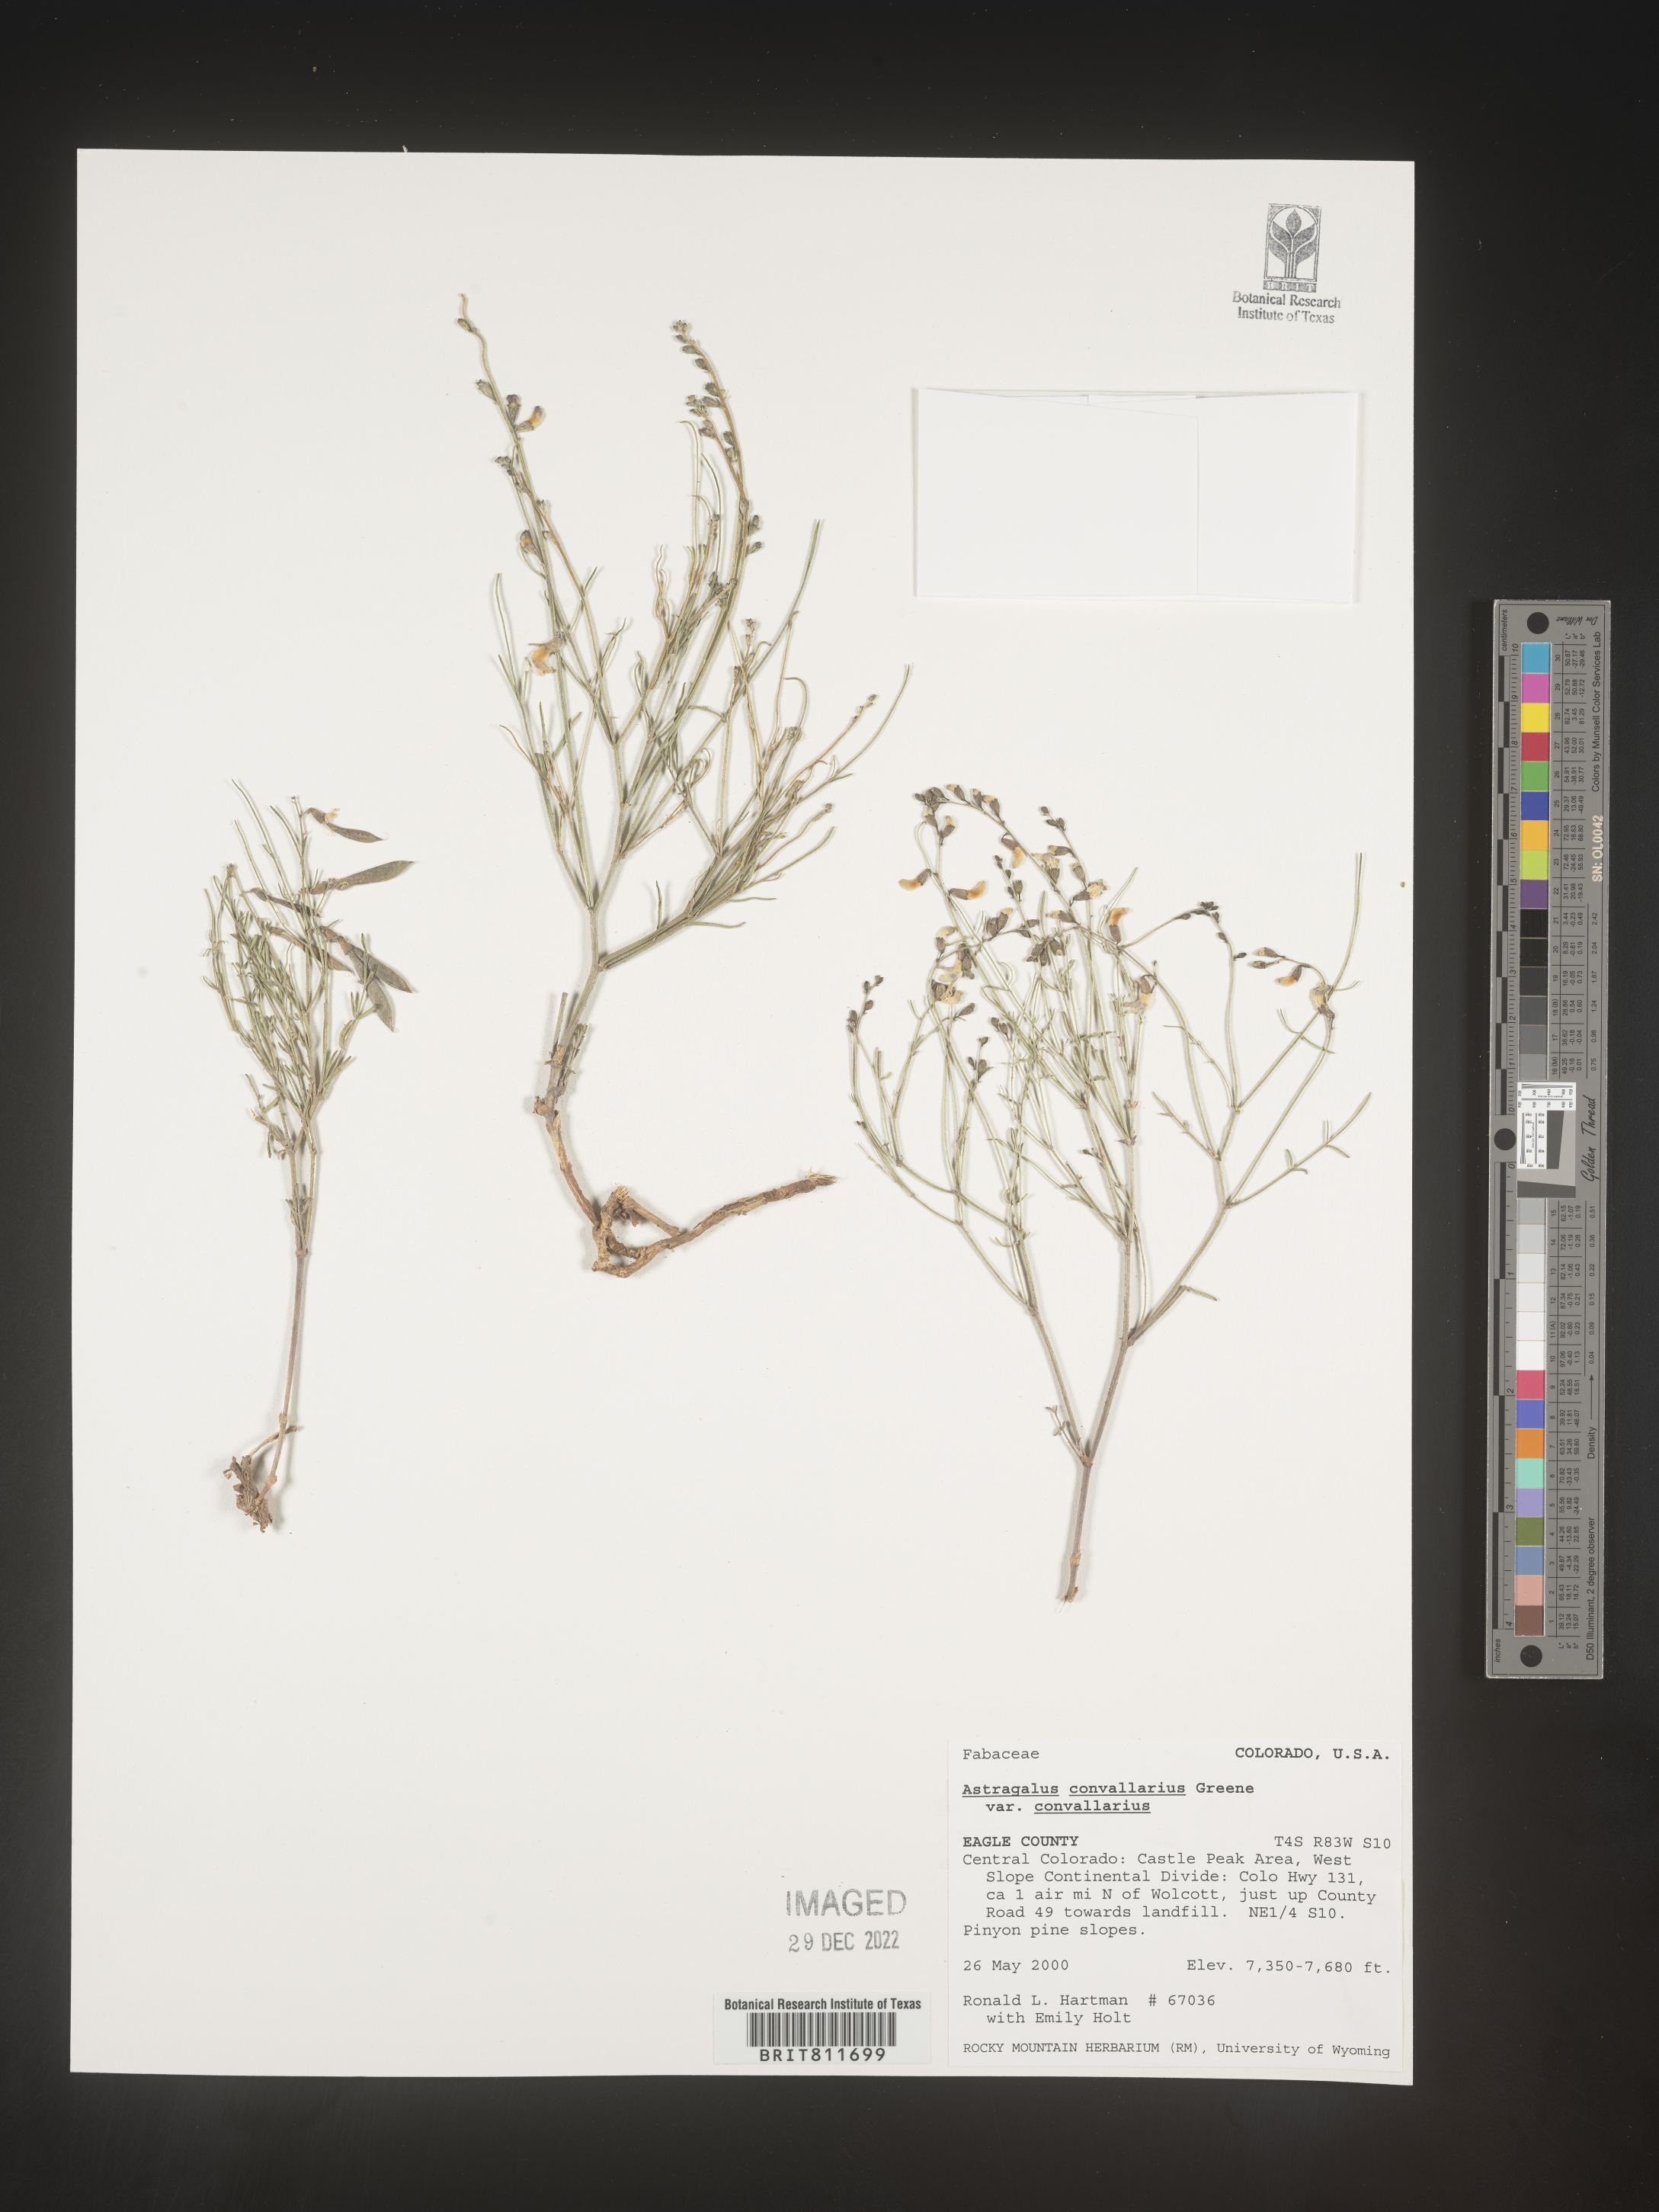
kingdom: Plantae
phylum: Tracheophyta
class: Magnoliopsida
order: Fabales
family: Fabaceae
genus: Astragalus
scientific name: Astragalus convallarius
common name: Lesser rushy milk-vetch
